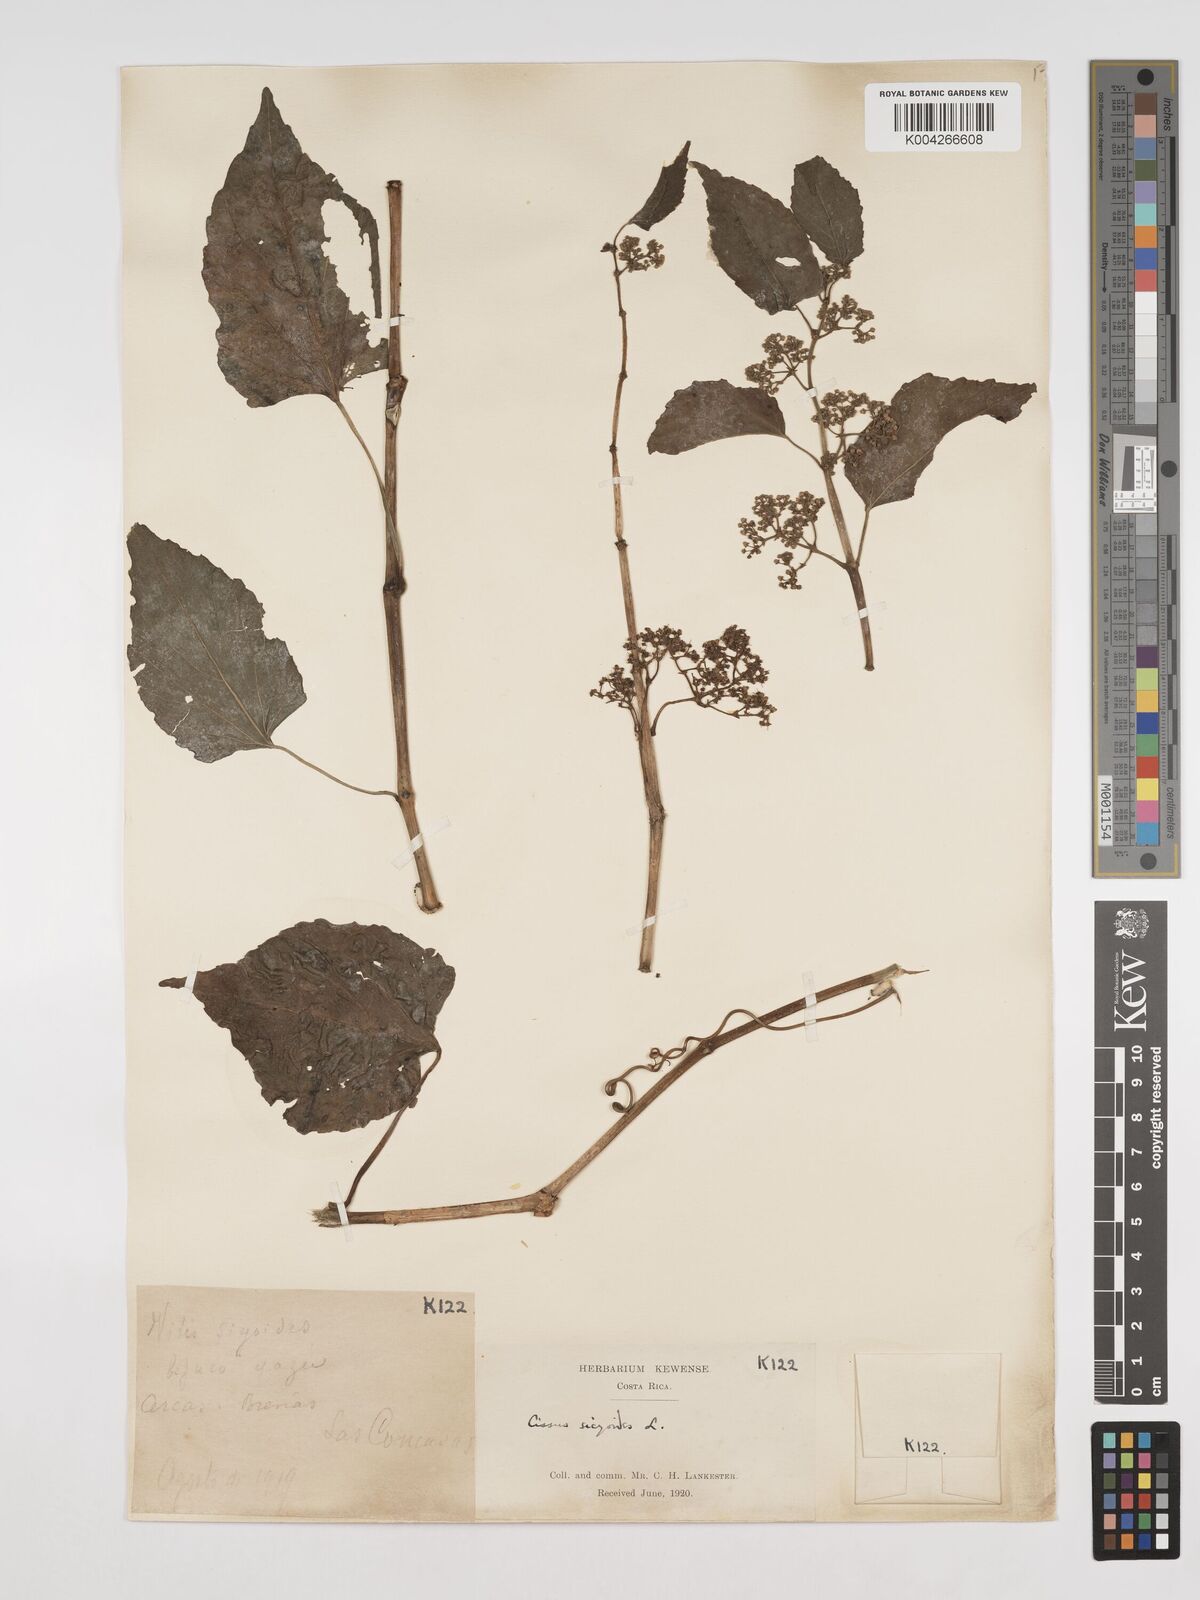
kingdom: Plantae
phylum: Tracheophyta
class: Magnoliopsida
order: Vitales
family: Vitaceae
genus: Cissus
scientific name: Cissus
